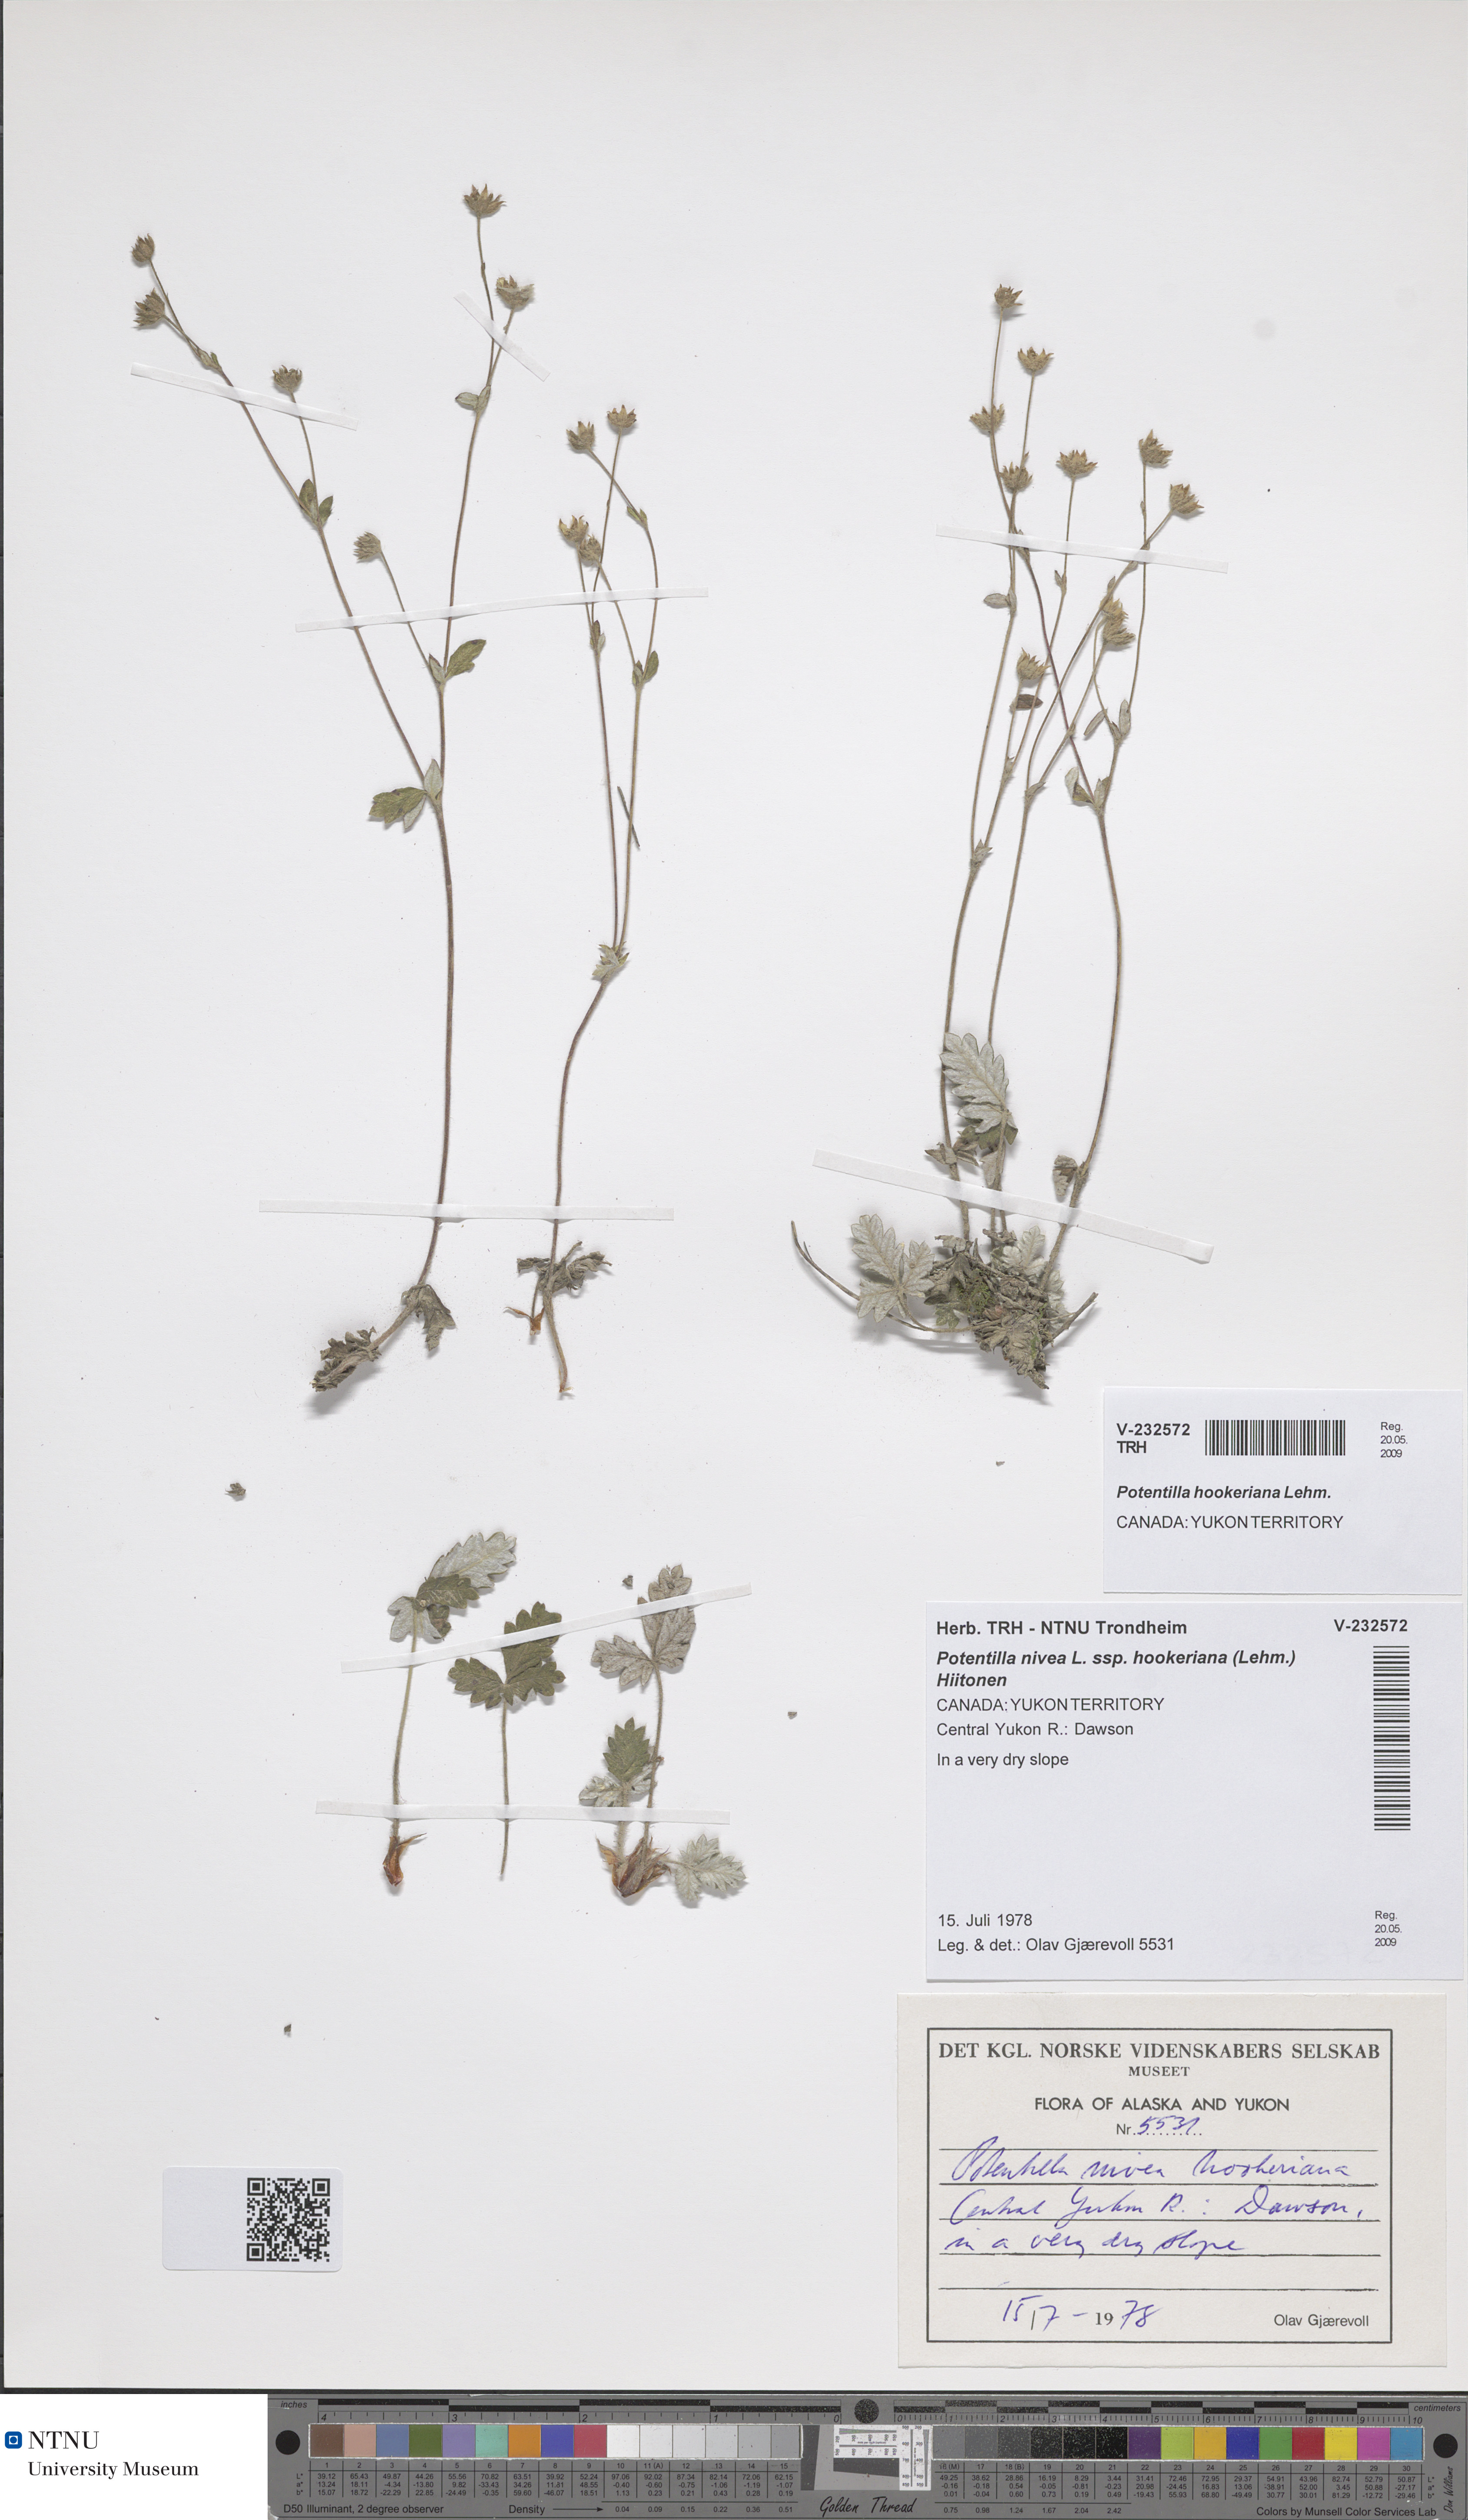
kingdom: Plantae
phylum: Tracheophyta
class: Magnoliopsida
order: Rosales
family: Rosaceae
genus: Potentilla
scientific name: Potentilla hookeriana
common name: Hooker's cinquefoil
